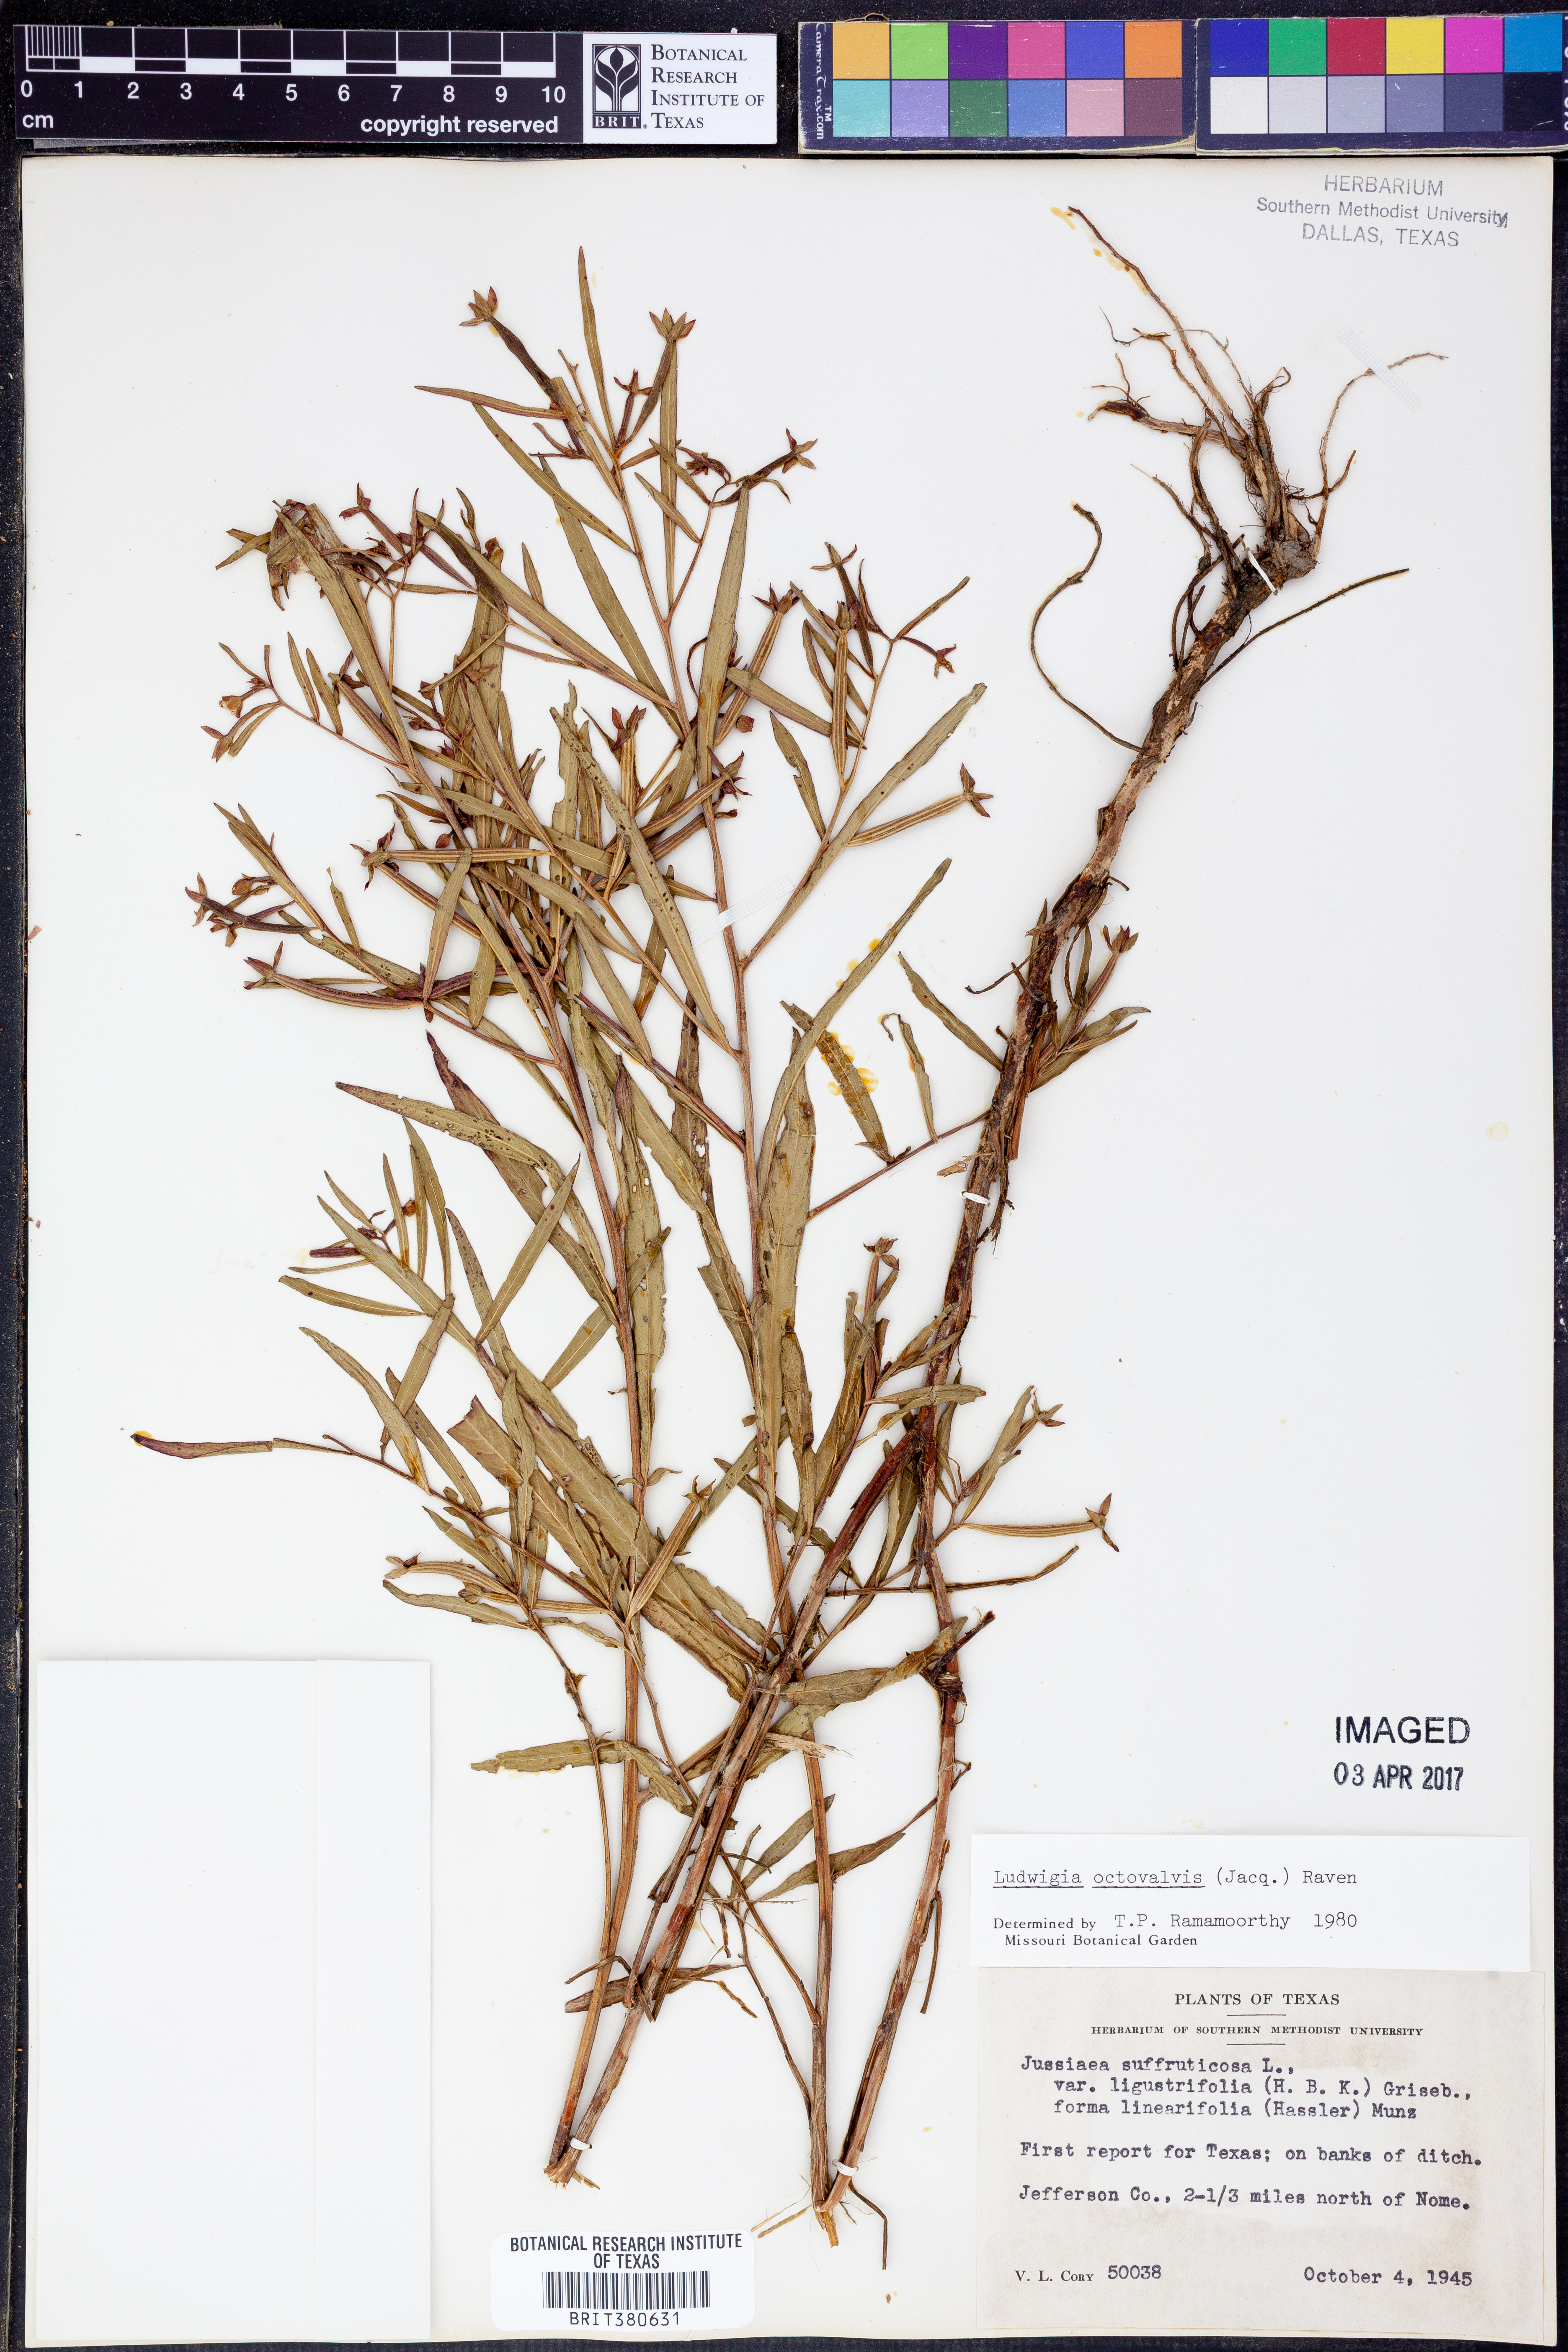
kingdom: Plantae
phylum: Tracheophyta
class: Magnoliopsida
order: Myrtales
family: Onagraceae
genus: Ludwigia
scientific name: Ludwigia octovalvis
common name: Water-primrose
